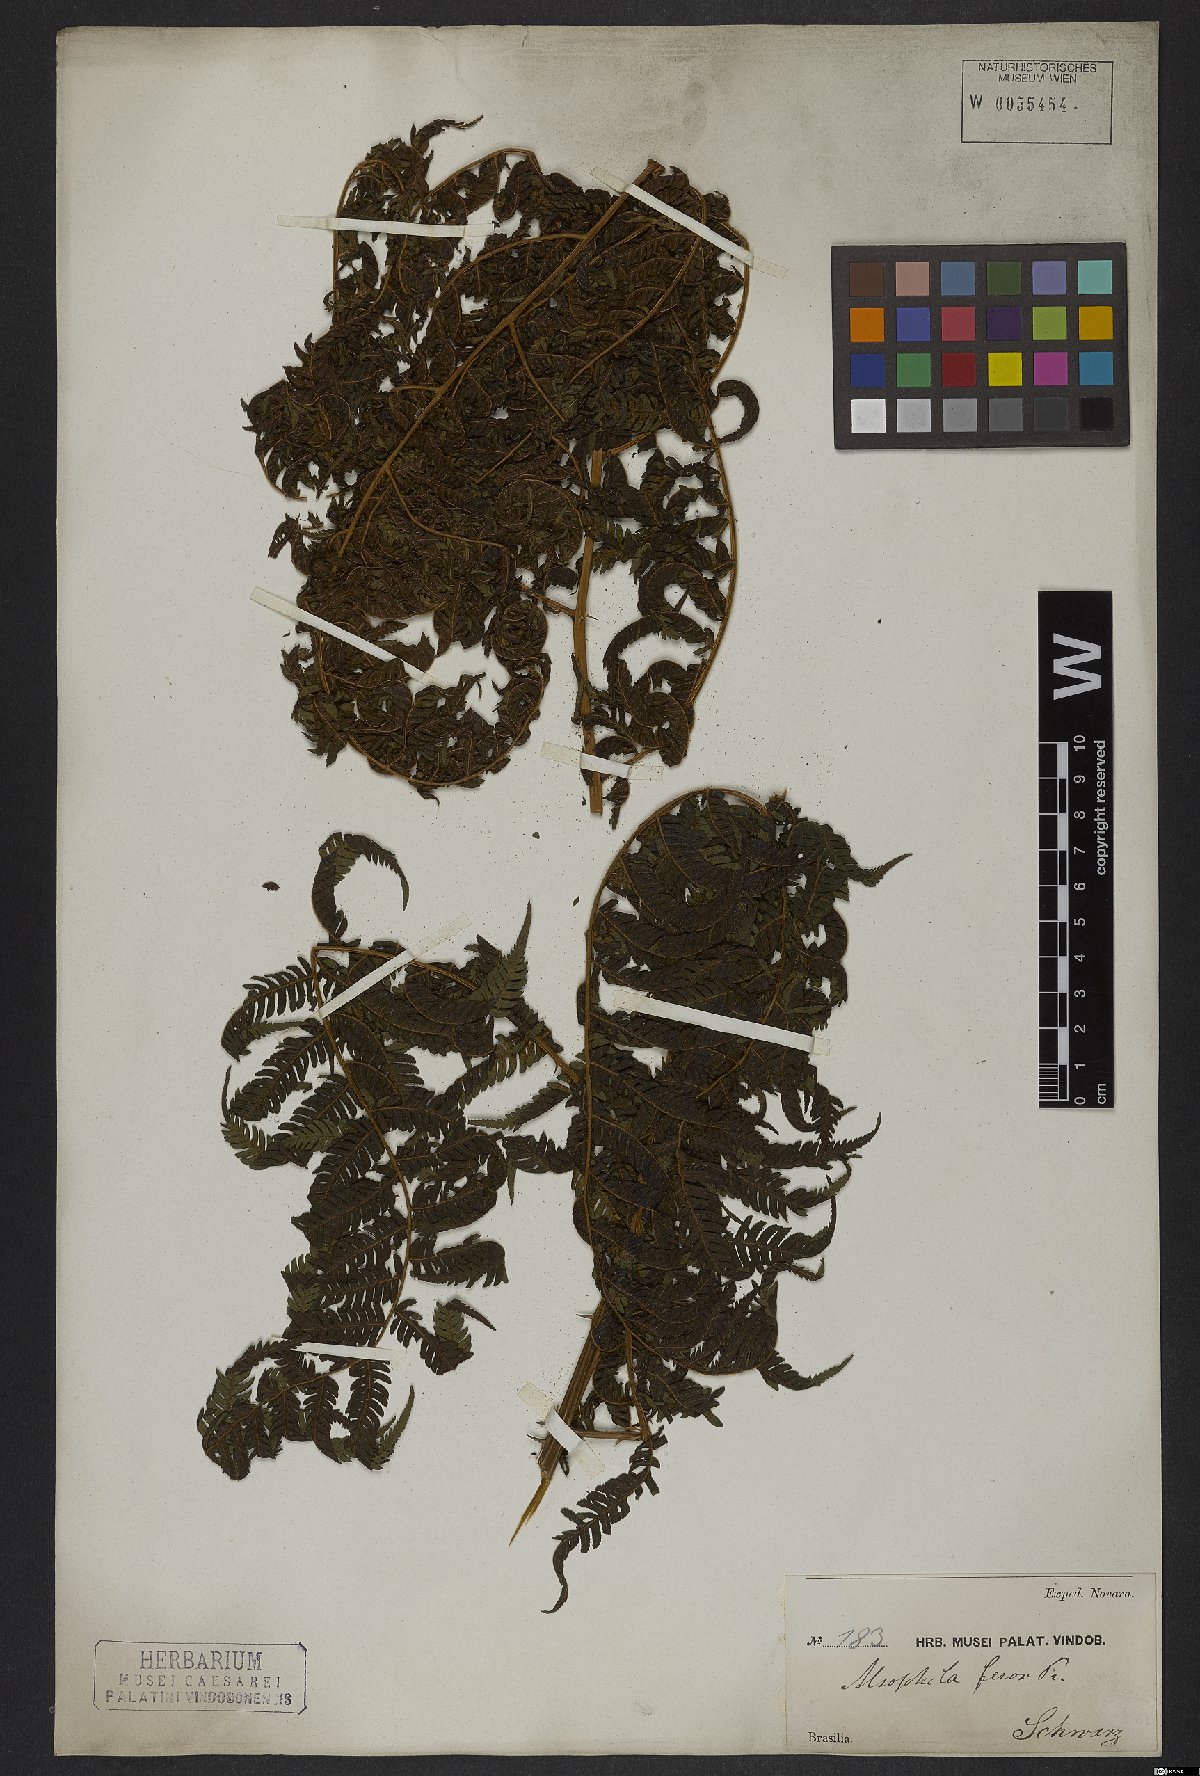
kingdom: Plantae
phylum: Tracheophyta
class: Polypodiopsida
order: Cyatheales
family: Cyatheaceae
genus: Cyathea
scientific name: Cyathea microdonta
